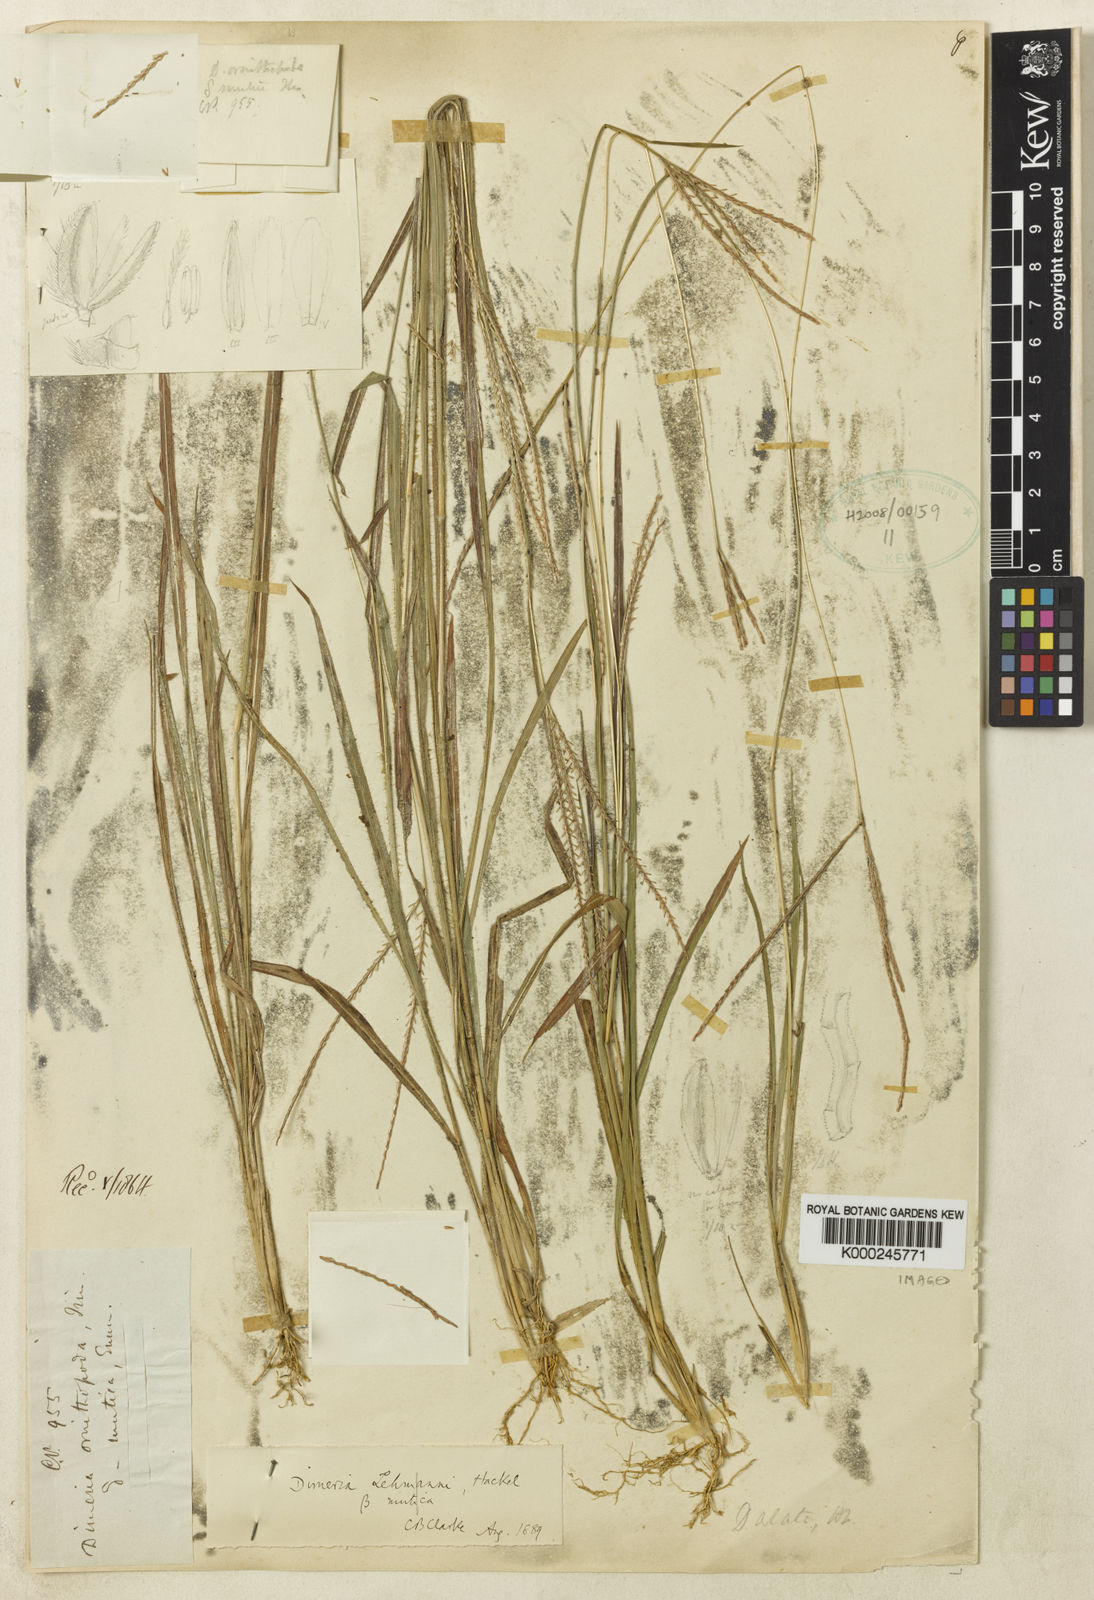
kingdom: Plantae
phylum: Tracheophyta
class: Liliopsida
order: Poales
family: Poaceae
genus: Dimeria
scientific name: Dimeria lehmannii
